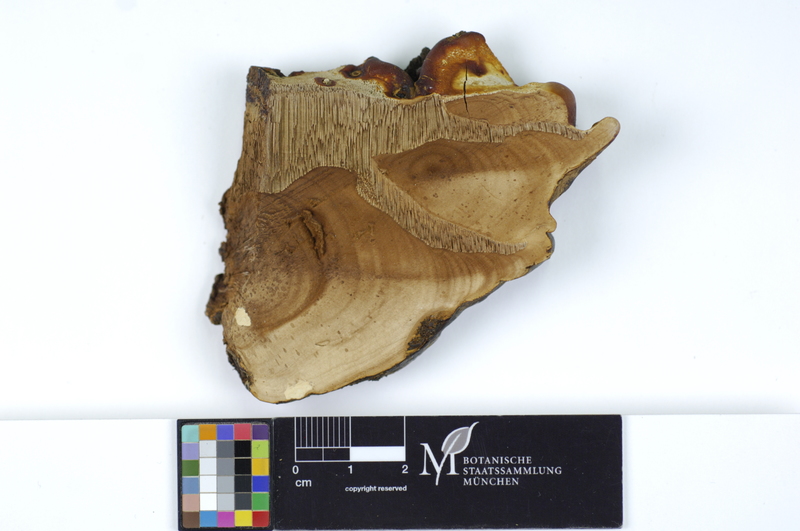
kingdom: Plantae
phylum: Tracheophyta
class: Magnoliopsida
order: Fagales
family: Fagaceae
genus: Quercus
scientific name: Quercus
